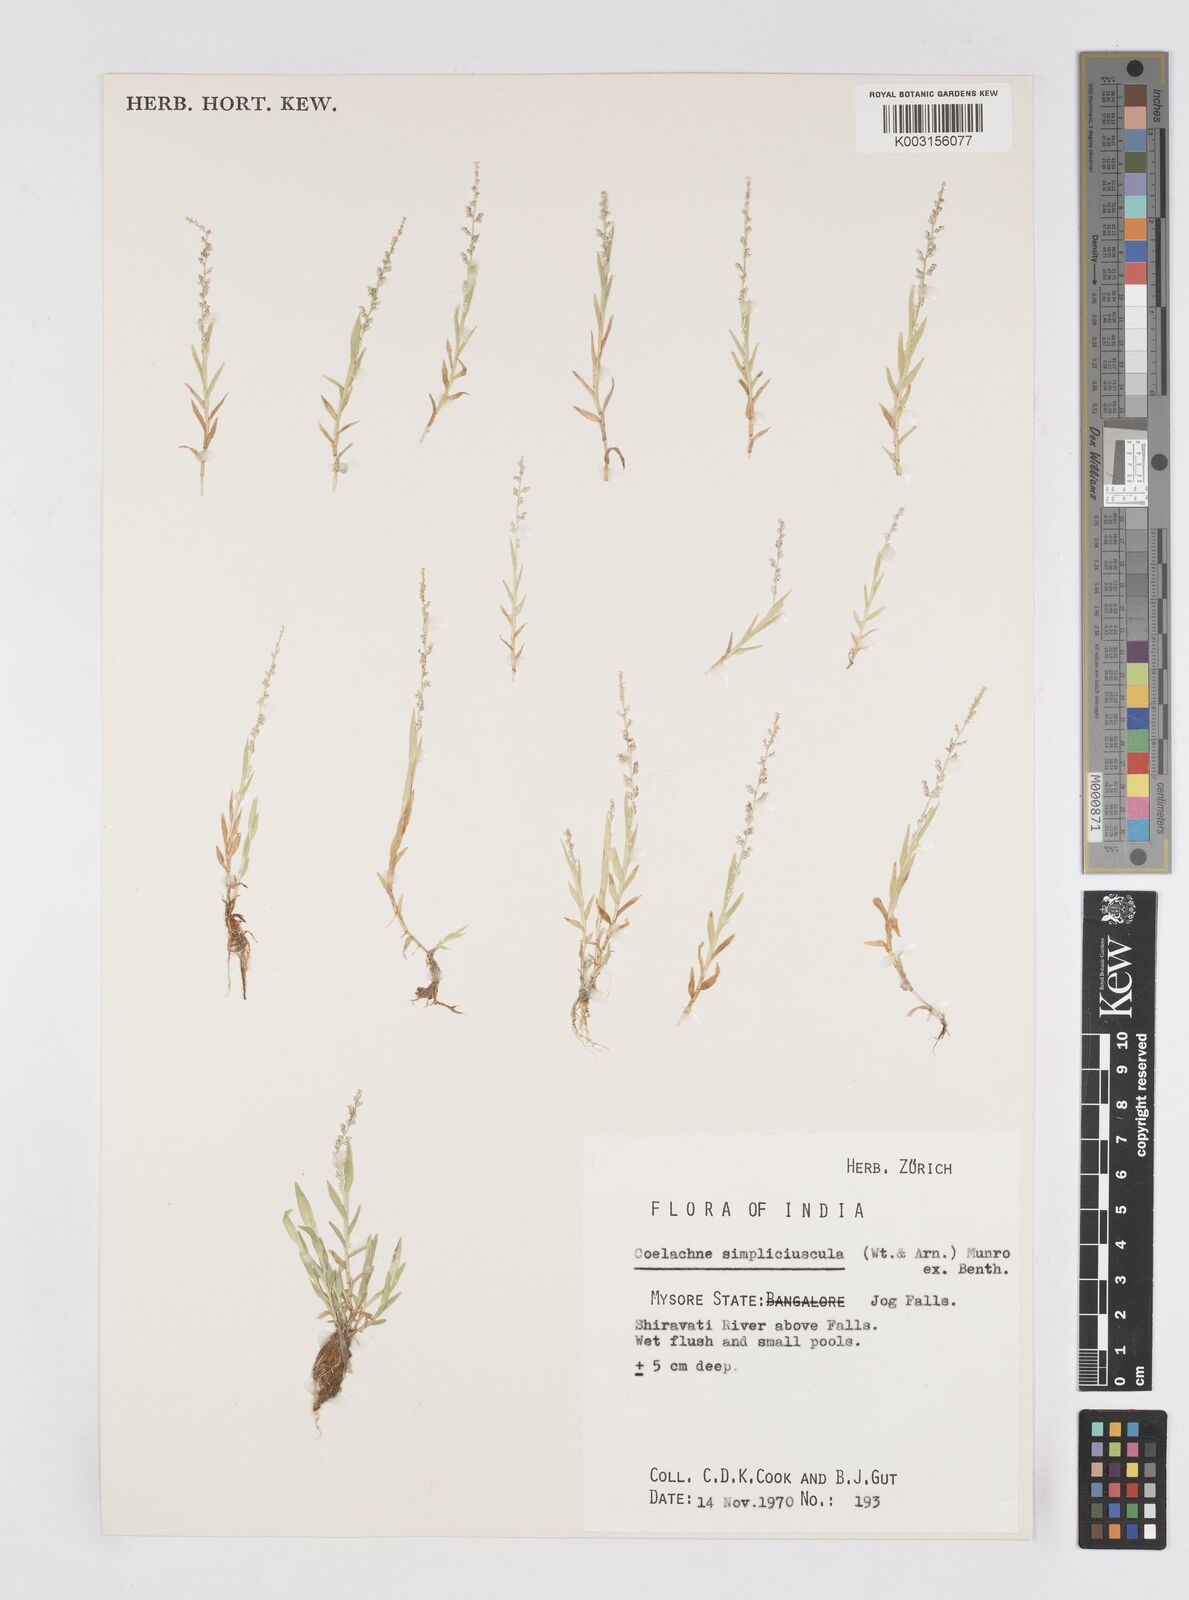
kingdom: Plantae
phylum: Tracheophyta
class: Liliopsida
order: Poales
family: Poaceae
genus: Coelachne
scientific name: Coelachne simpliciuscula
